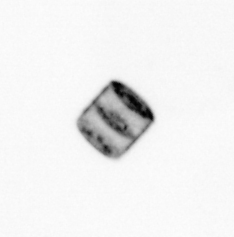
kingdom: Chromista
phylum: Ochrophyta
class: Bacillariophyceae
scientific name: Bacillariophyceae
